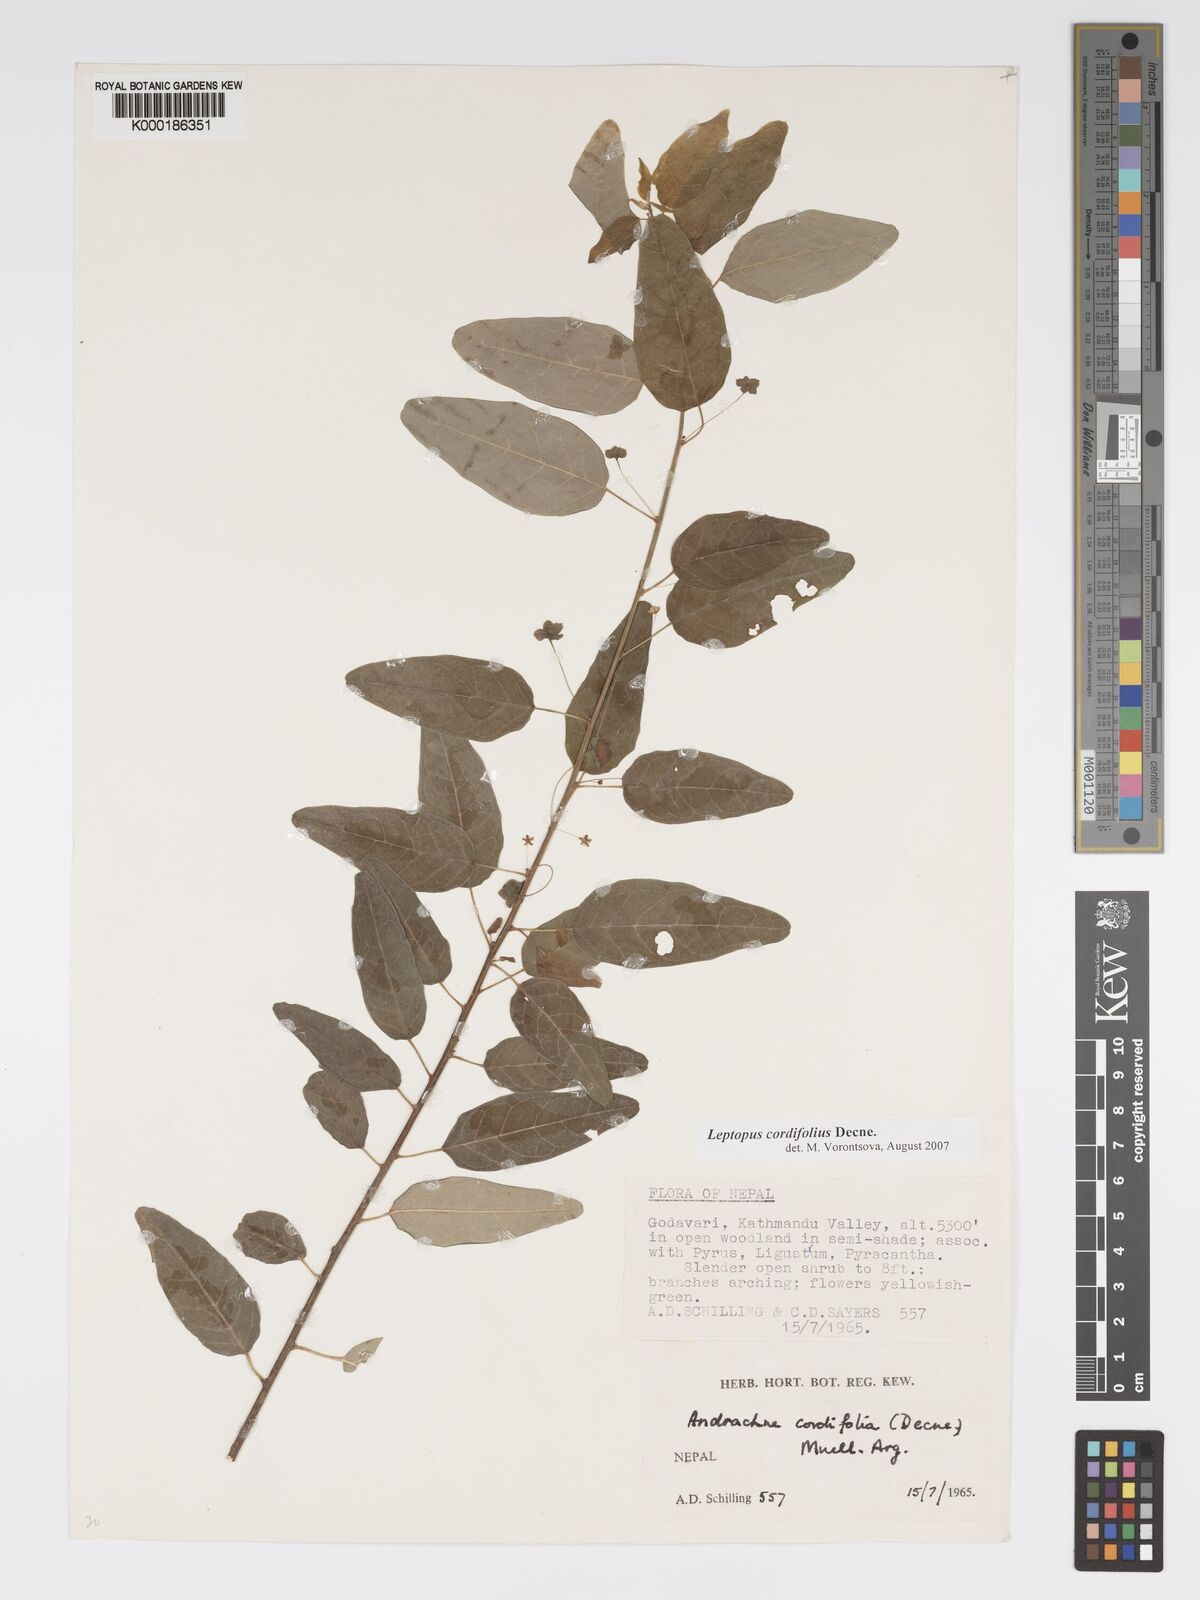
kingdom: Plantae
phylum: Tracheophyta
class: Magnoliopsida
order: Malpighiales
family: Phyllanthaceae
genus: Leptopus
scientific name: Leptopus cordifolius
